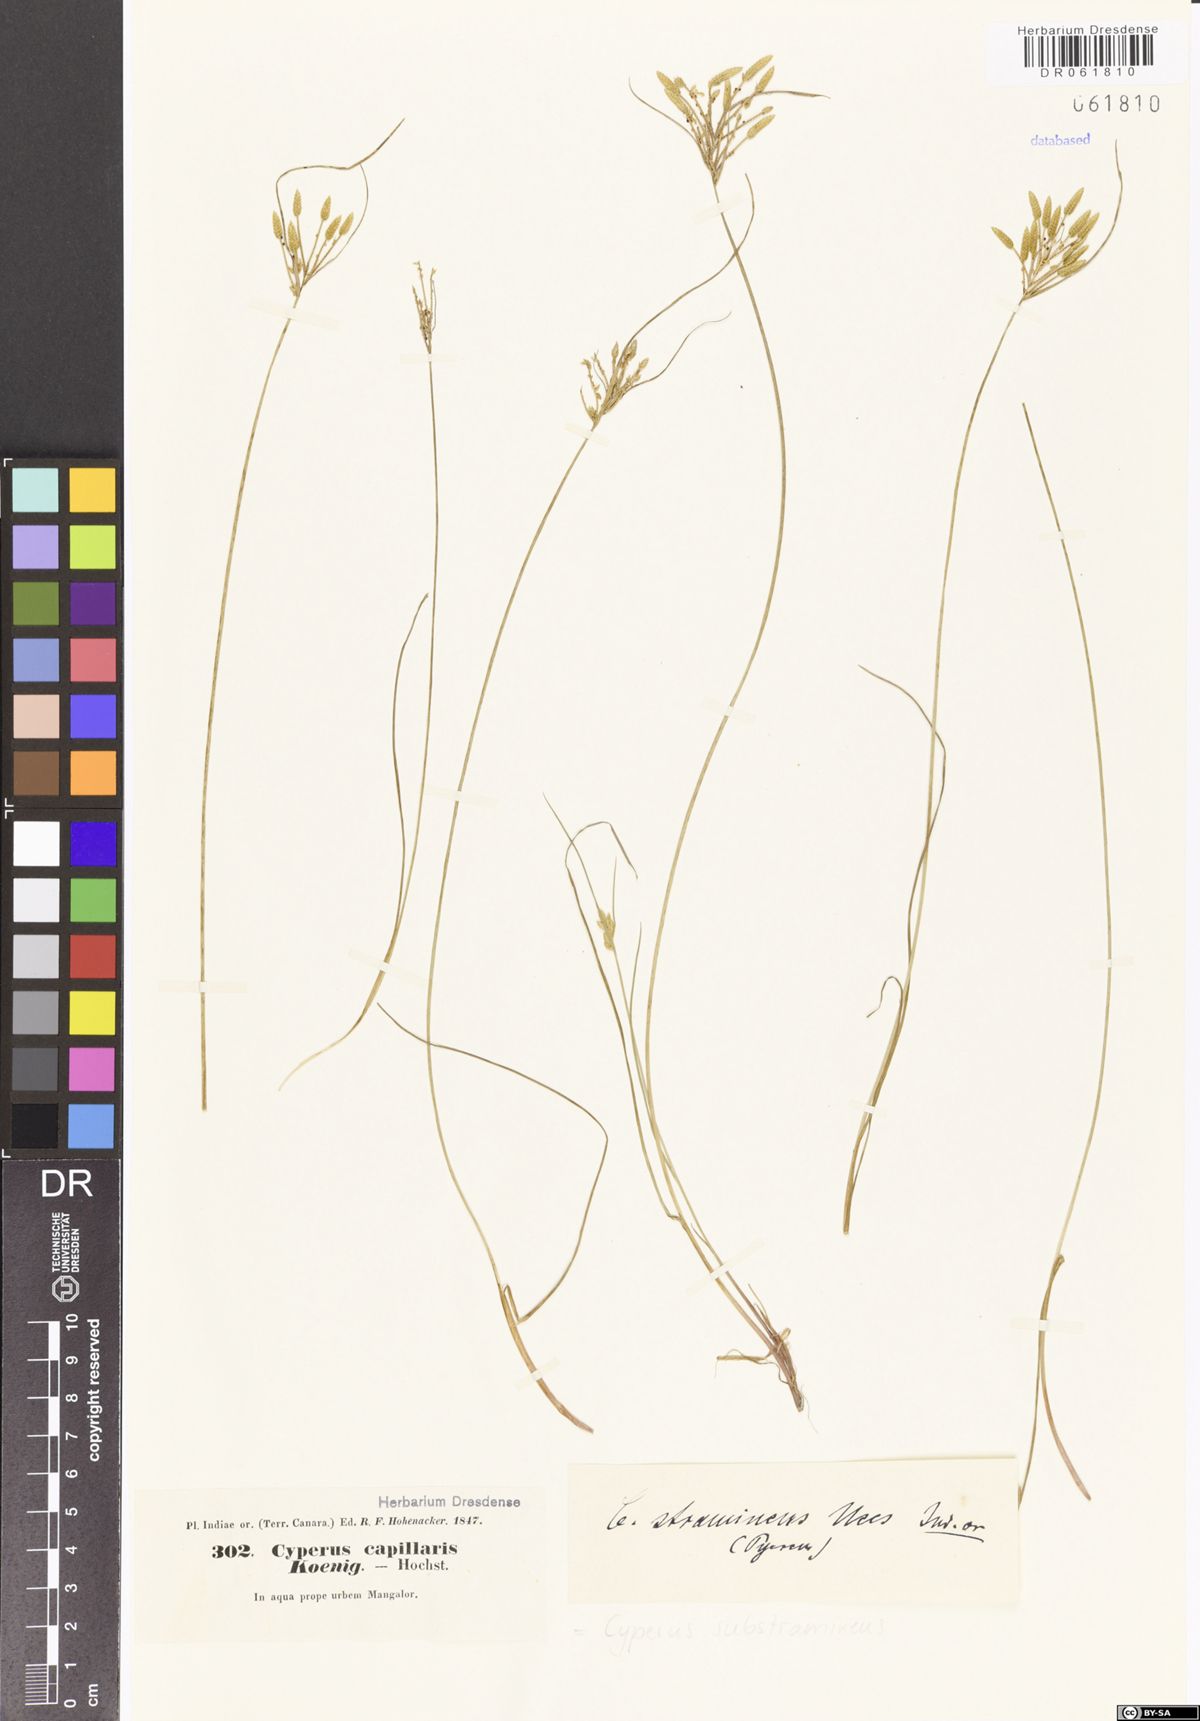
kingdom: Plantae
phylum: Tracheophyta
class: Liliopsida
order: Poales
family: Cyperaceae
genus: Cyperus
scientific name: Cyperus substramineus
